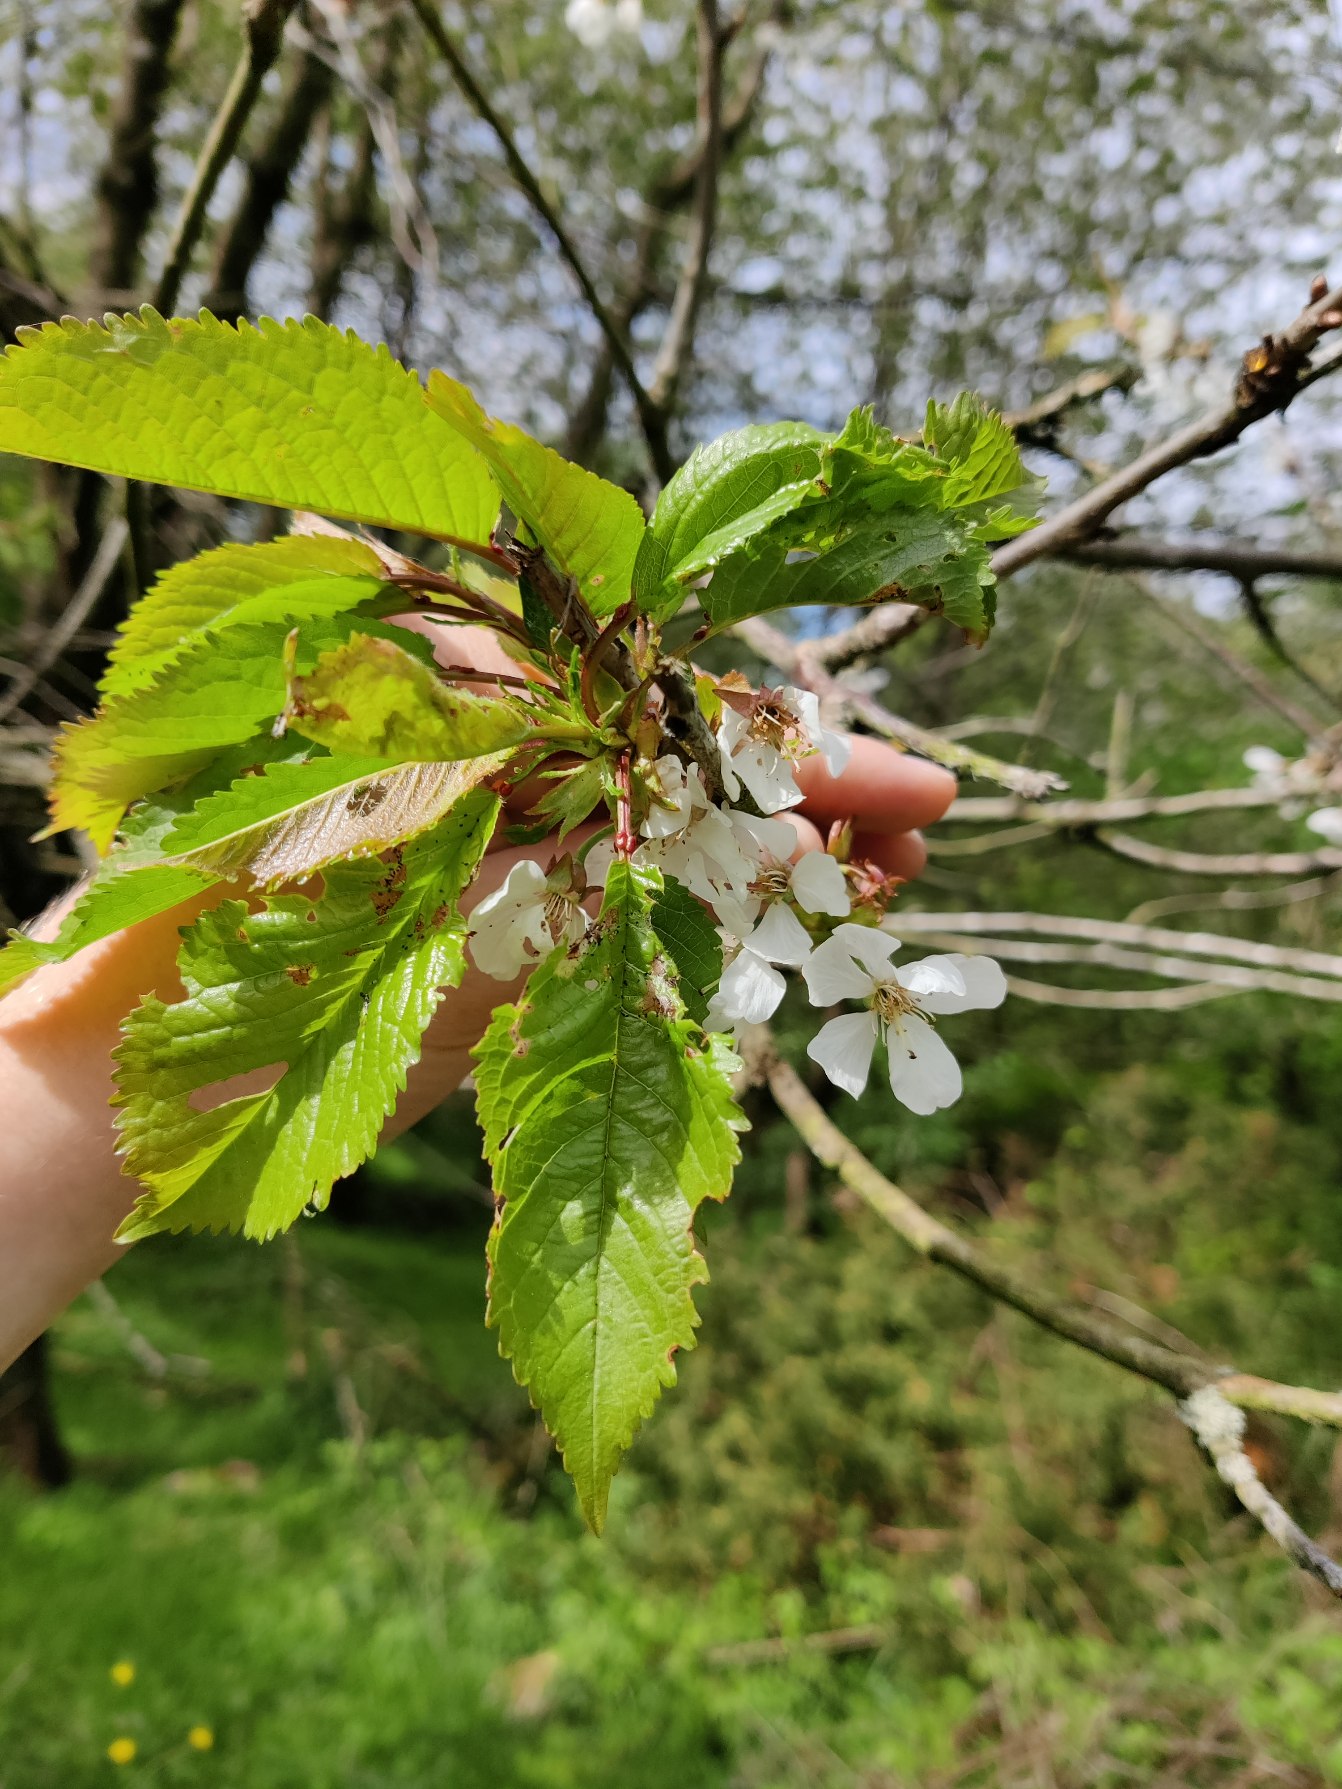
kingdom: Plantae
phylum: Tracheophyta
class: Magnoliopsida
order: Rosales
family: Rosaceae
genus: Prunus
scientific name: Prunus avium
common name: Fugle-kirsebær
